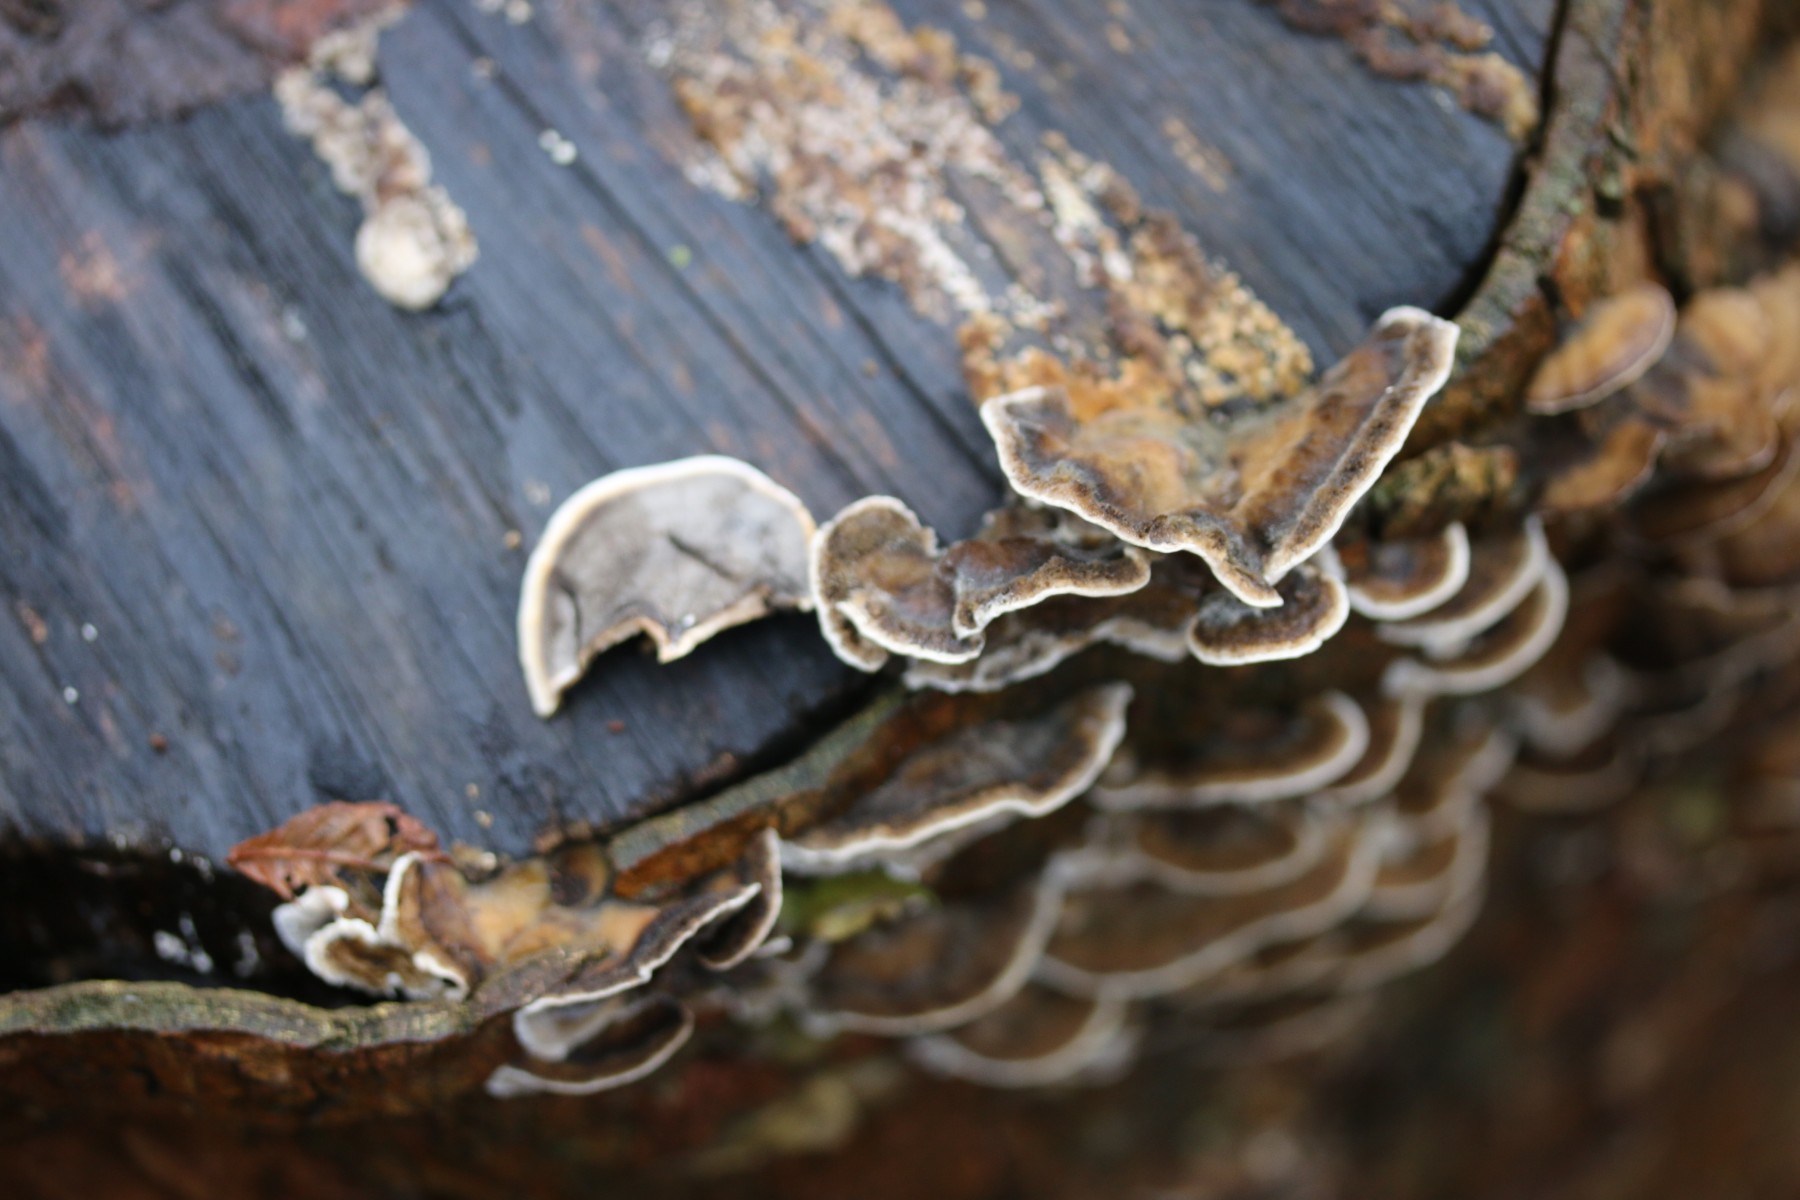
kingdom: Fungi
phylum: Basidiomycota
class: Agaricomycetes
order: Polyporales
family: Phanerochaetaceae
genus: Bjerkandera
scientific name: Bjerkandera adusta
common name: sveden sodporesvamp
